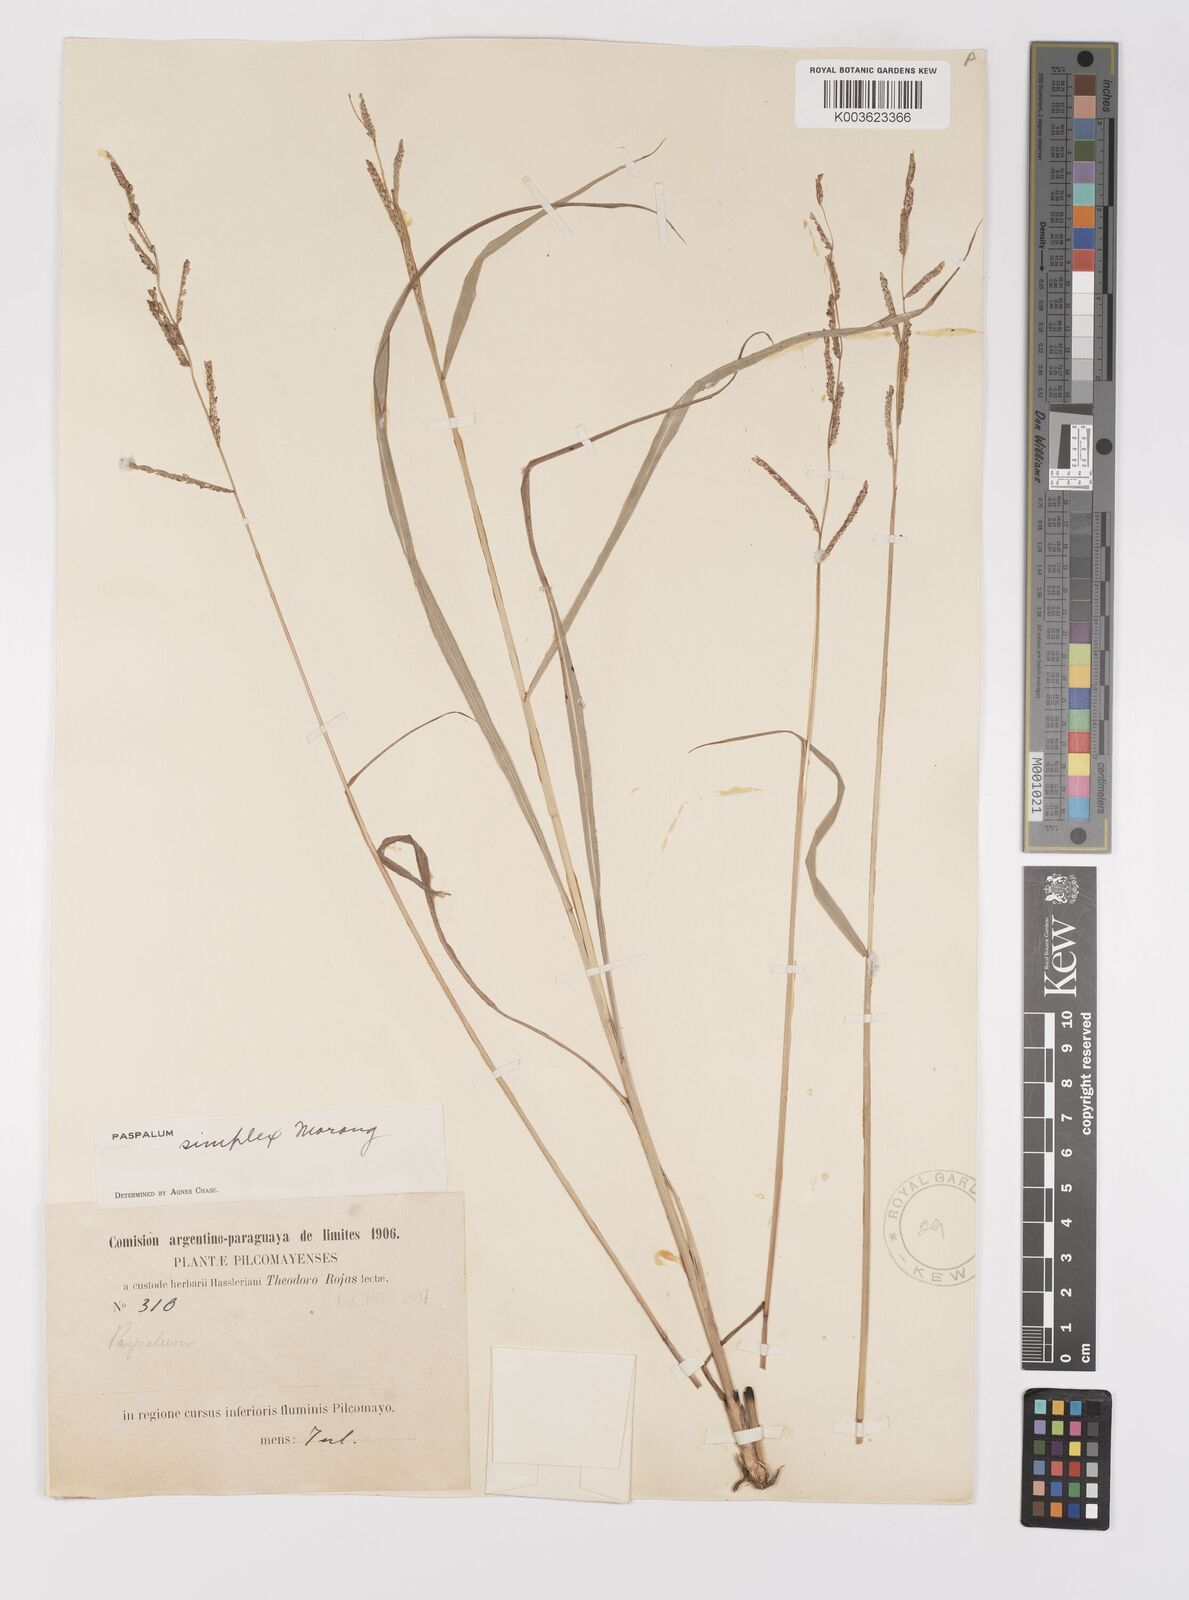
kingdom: Plantae
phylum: Tracheophyta
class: Liliopsida
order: Poales
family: Poaceae
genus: Paspalum
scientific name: Paspalum simplex
